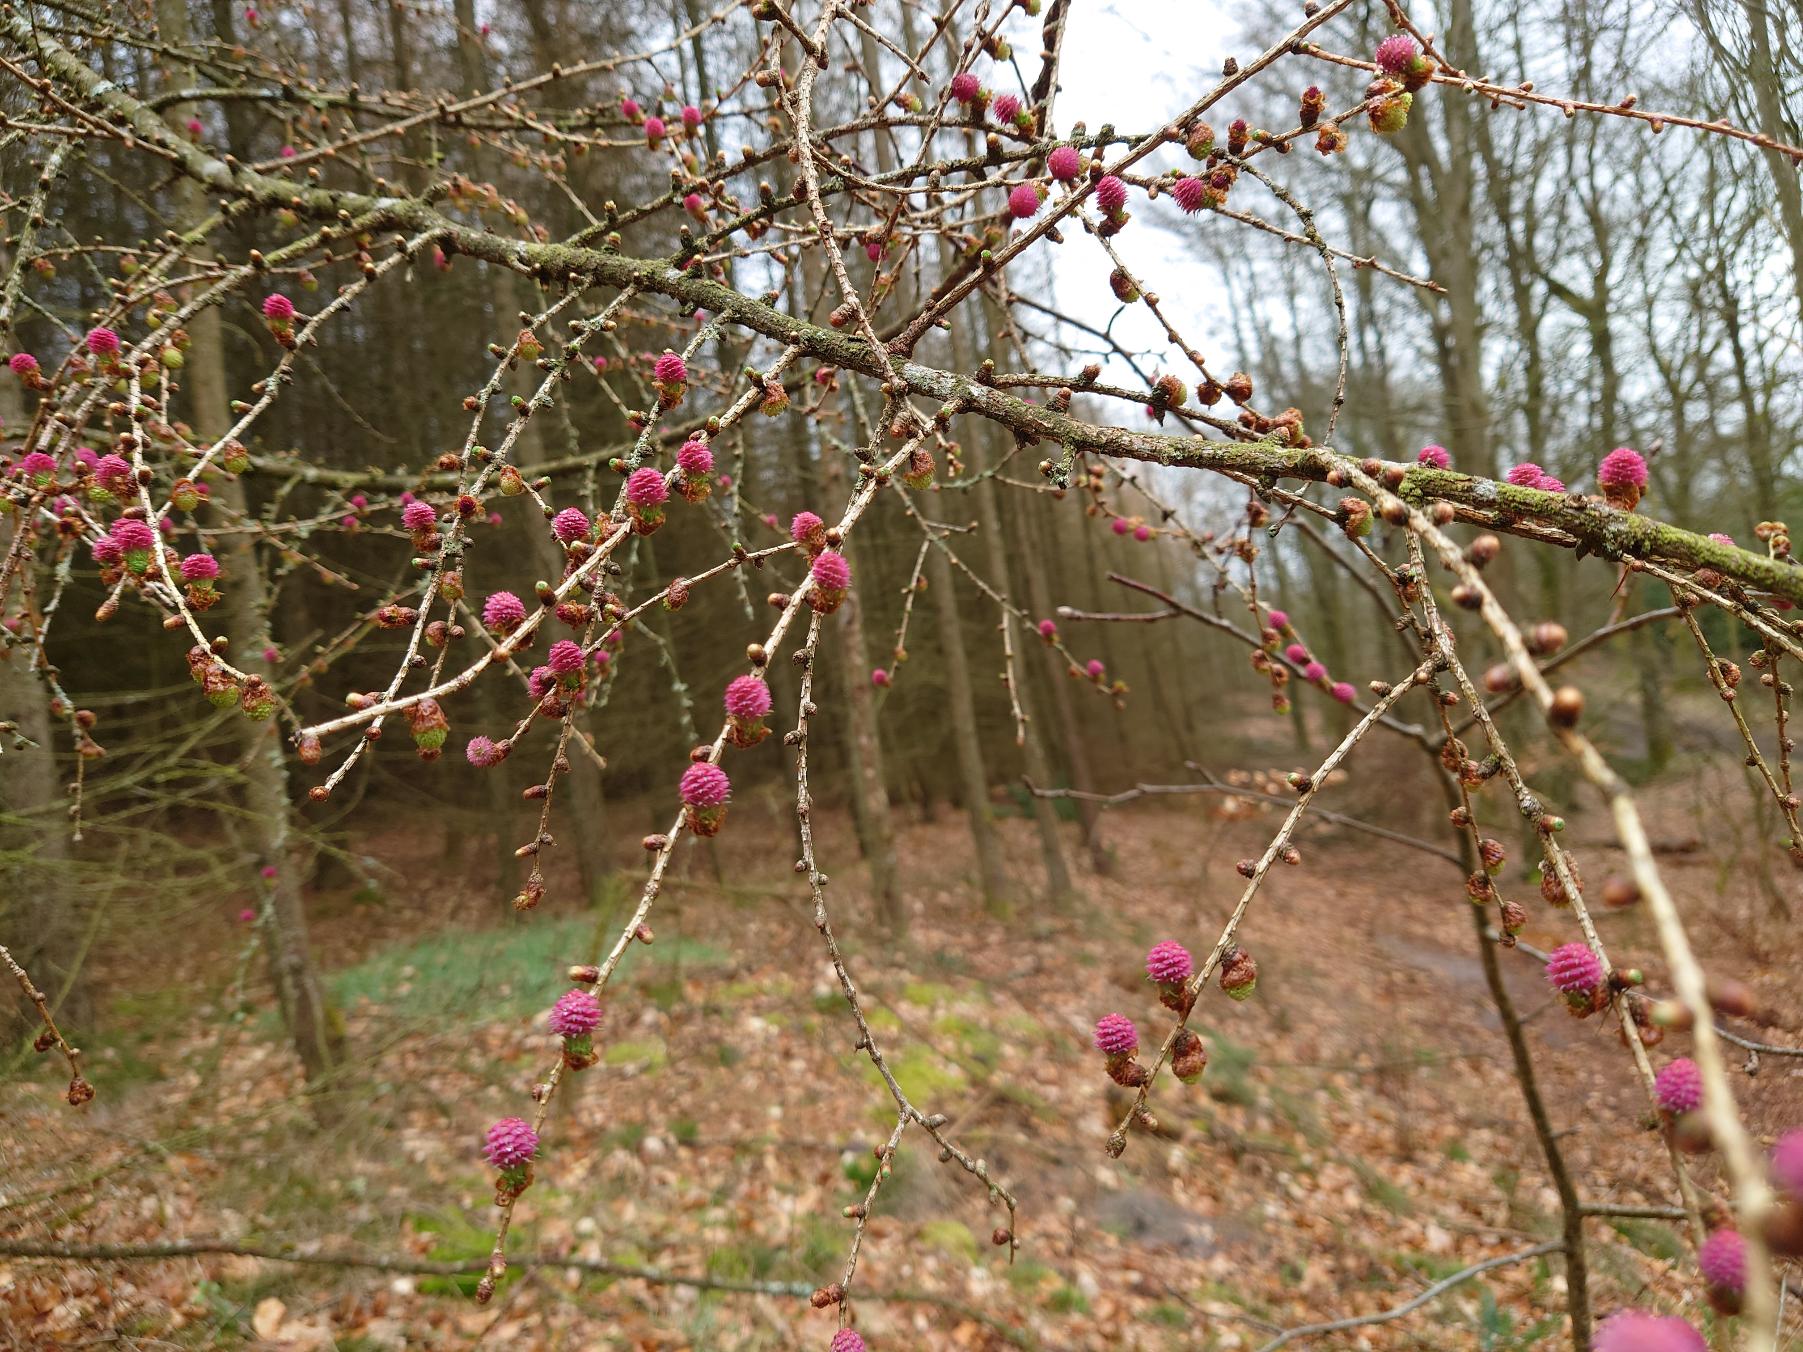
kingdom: Plantae
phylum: Tracheophyta
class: Pinopsida
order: Pinales
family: Pinaceae
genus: Larix
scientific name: Larix
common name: Lærkeslægten
